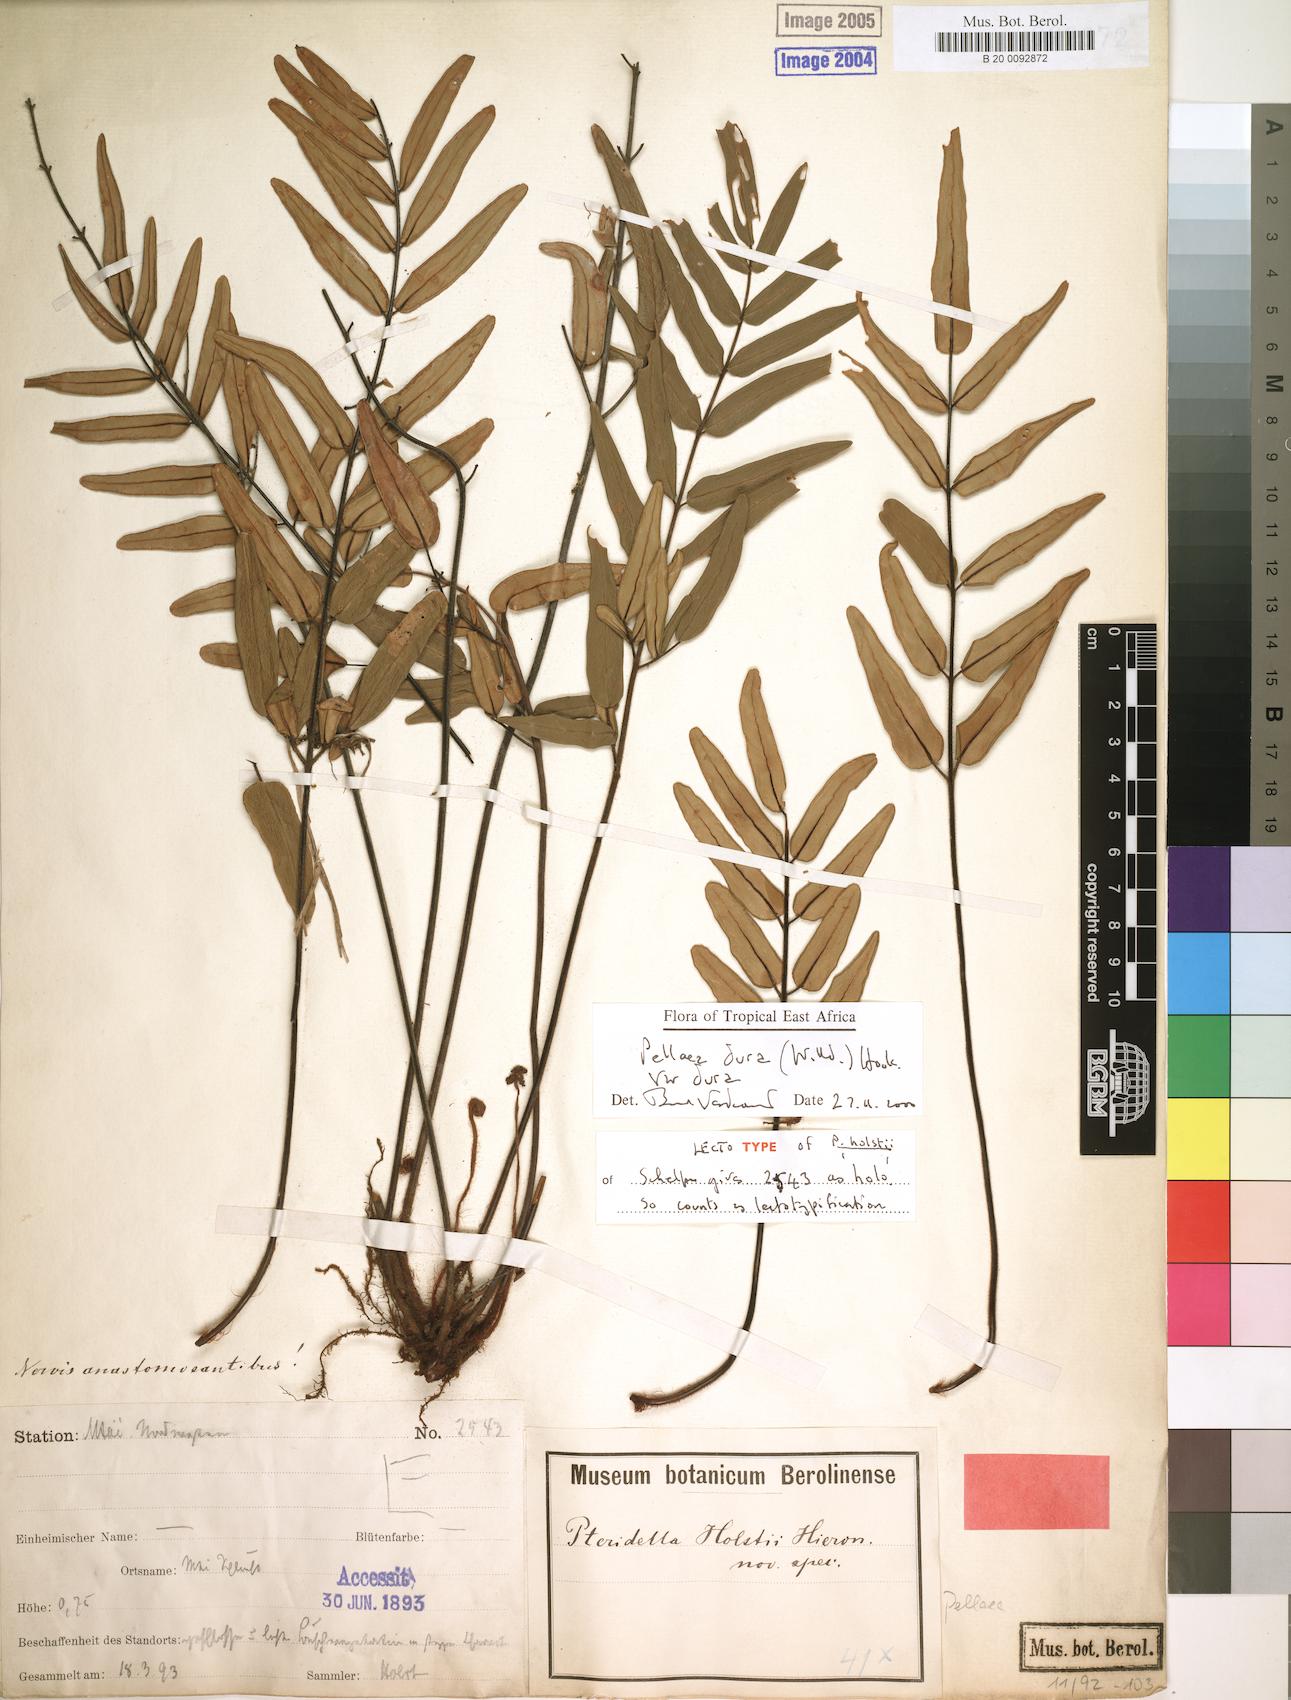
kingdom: Plantae
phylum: Tracheophyta
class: Polypodiopsida
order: Polypodiales
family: Pteridaceae
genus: Pellaea
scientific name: Pellaea dura
